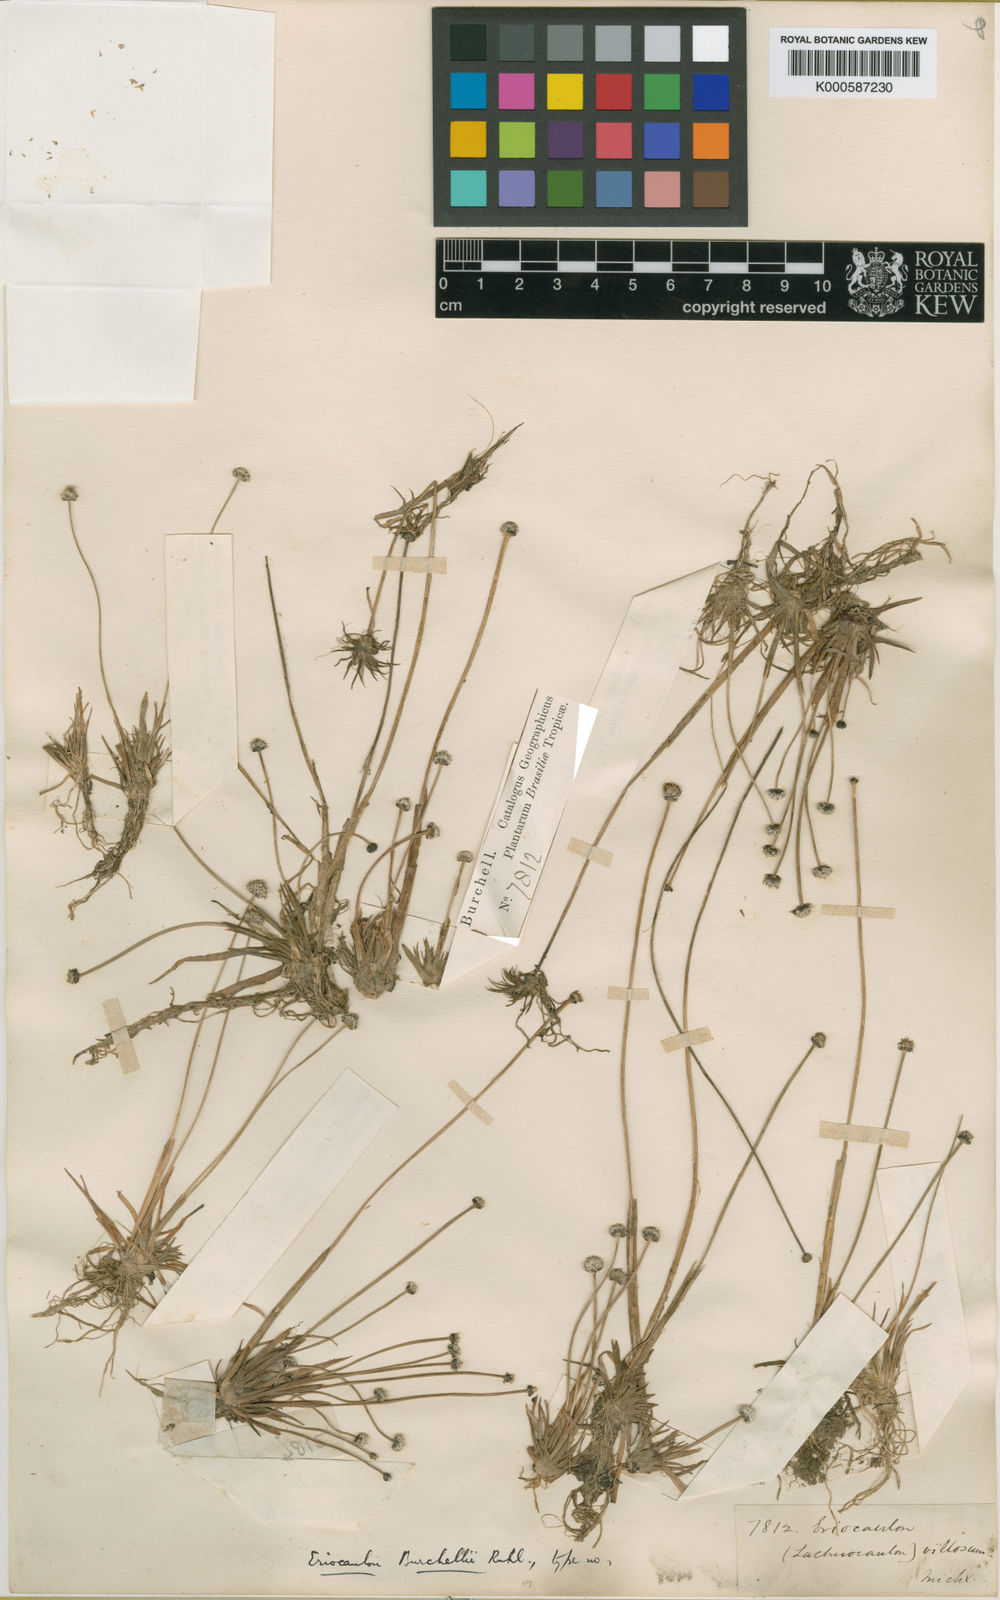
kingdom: Plantae
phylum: Tracheophyta
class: Liliopsida
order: Poales
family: Eriocaulaceae
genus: Eriocaulon
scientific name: Eriocaulon modestum
